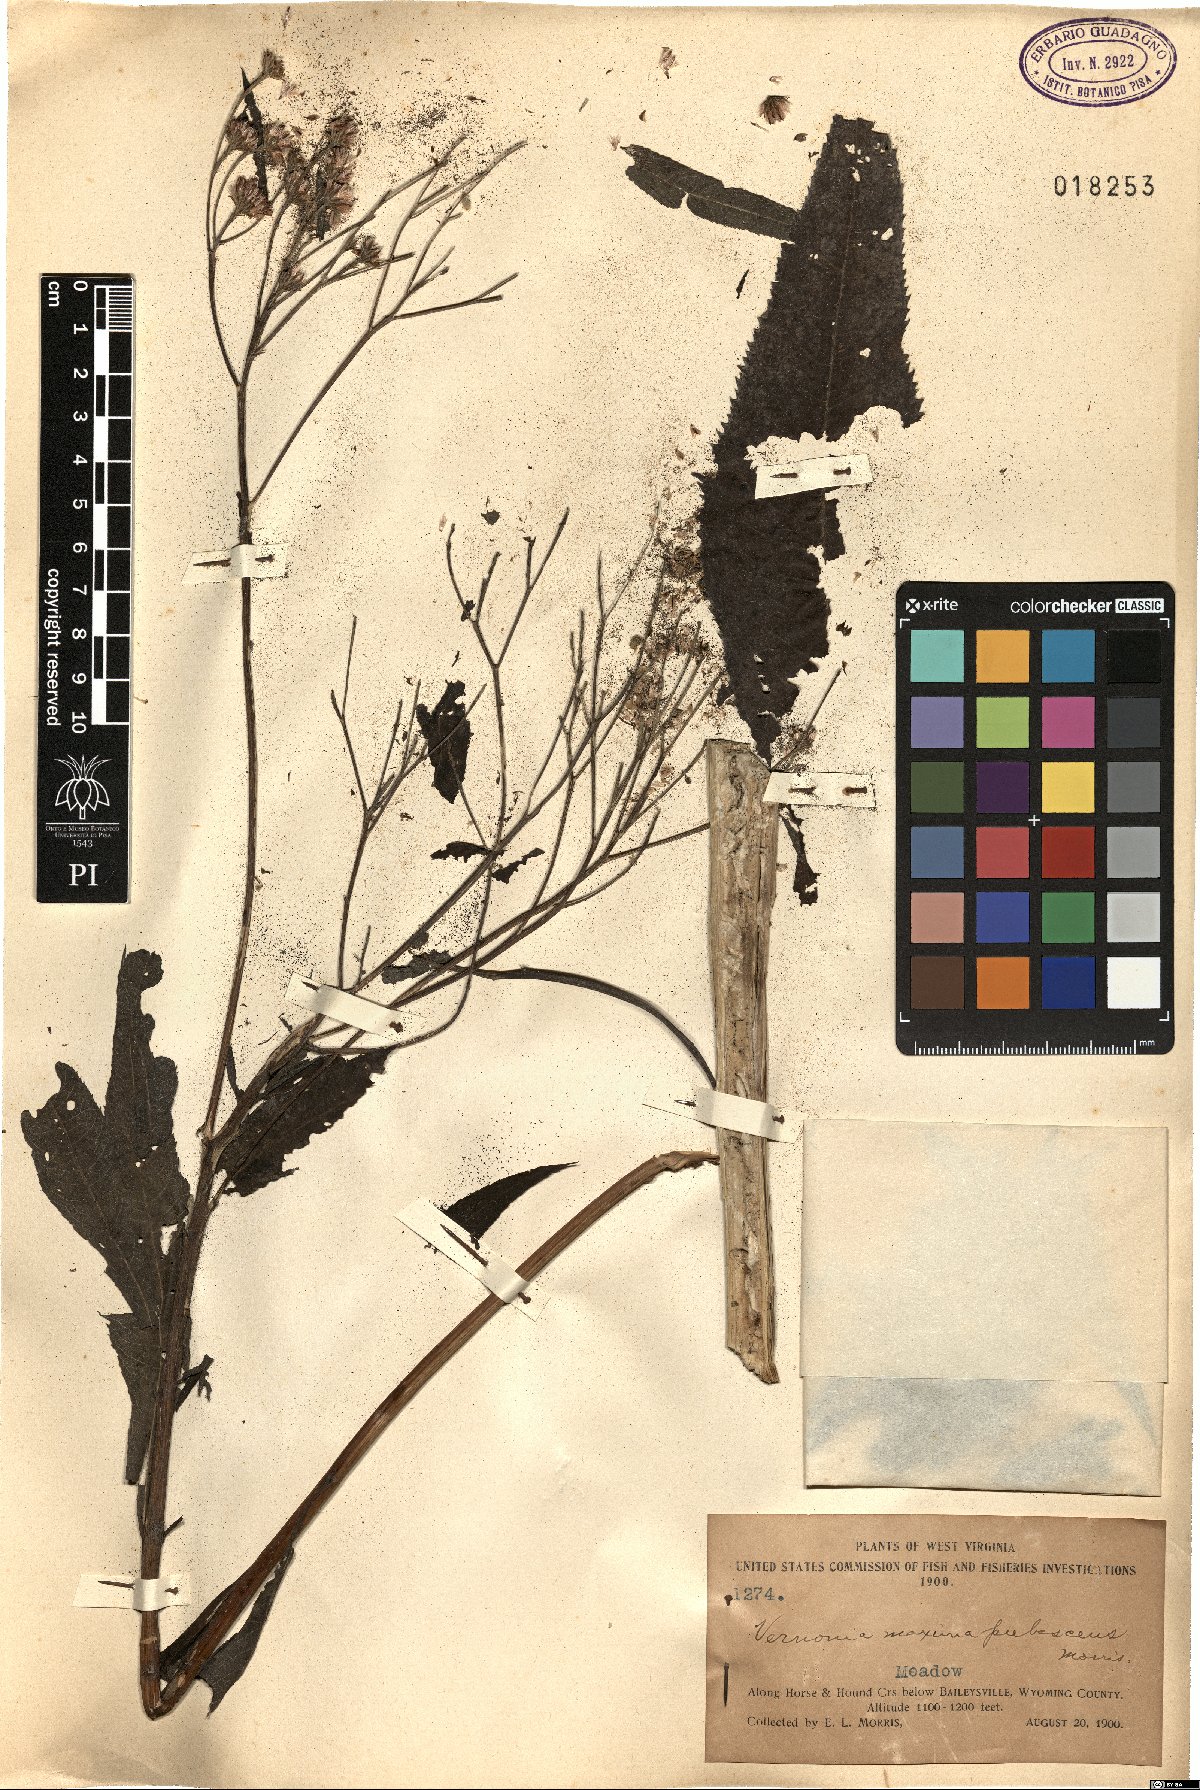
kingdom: Plantae
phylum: Tracheophyta
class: Magnoliopsida
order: Asterales
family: Asteraceae
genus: Vernonia
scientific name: Vernonia gigantea
